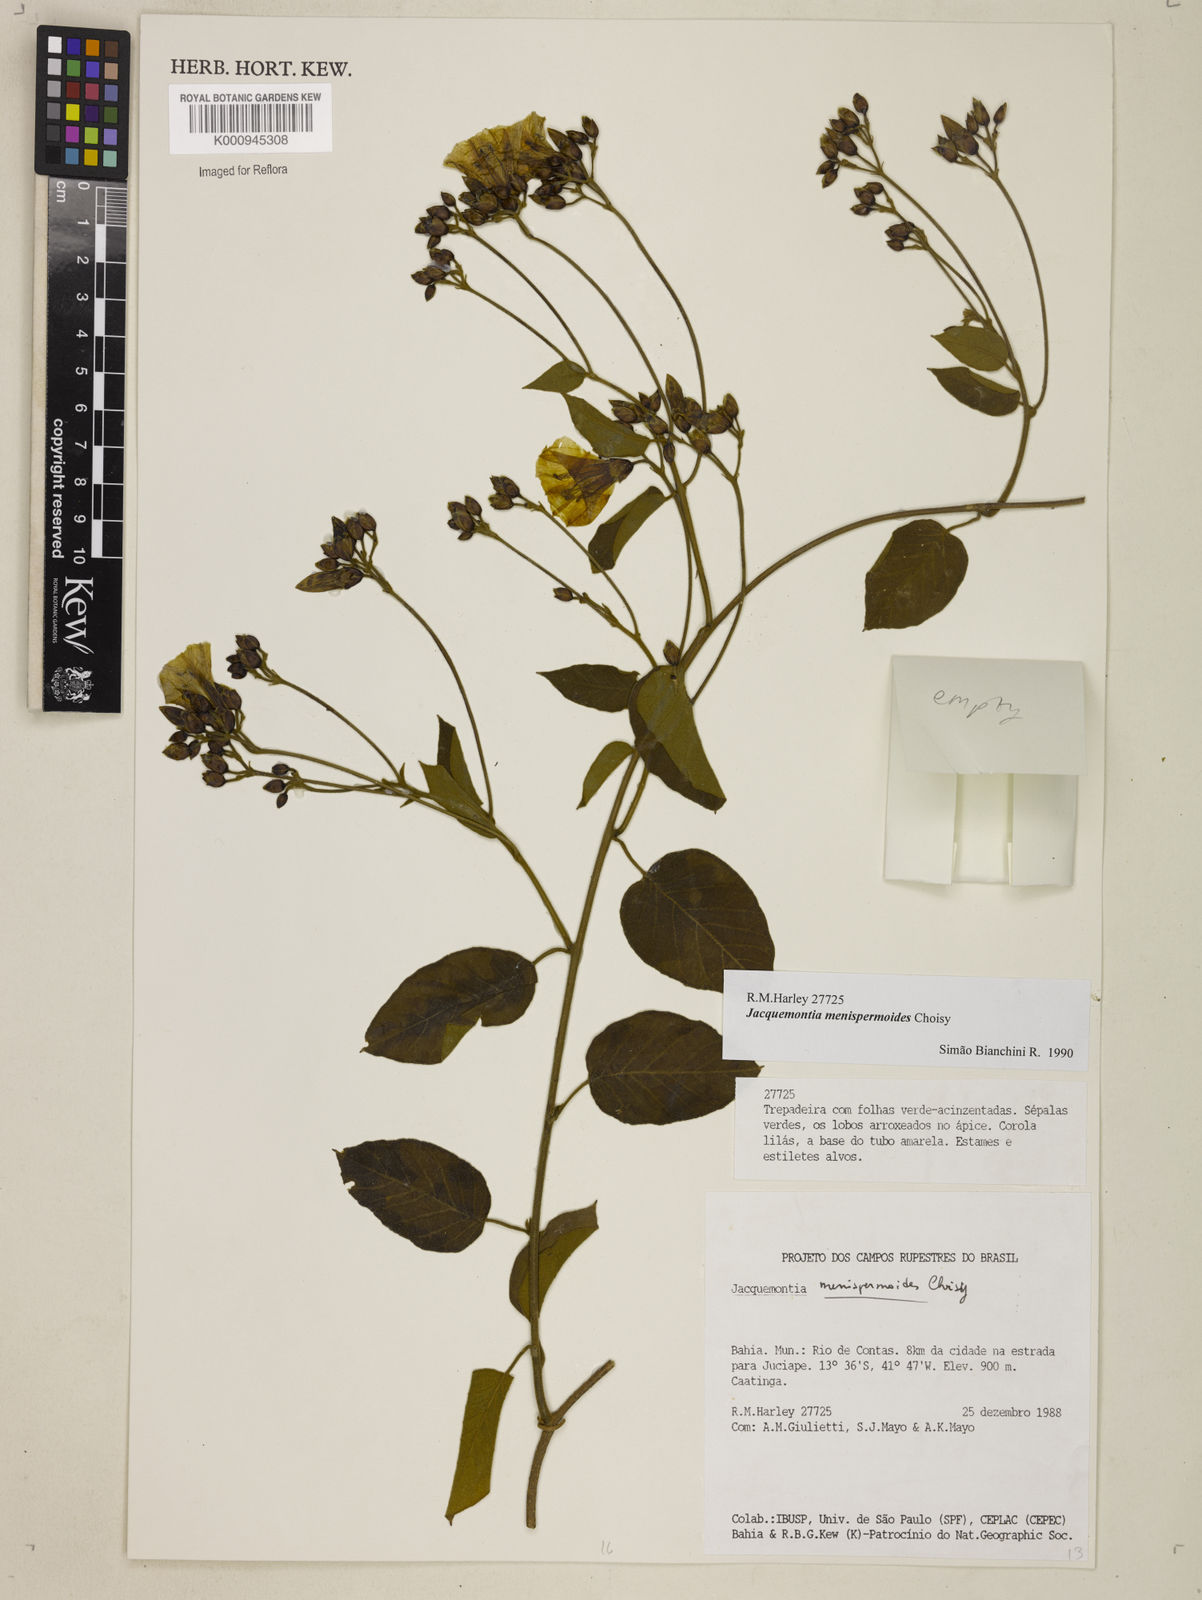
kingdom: Plantae
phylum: Tracheophyta
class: Magnoliopsida
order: Solanales
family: Convolvulaceae
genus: Jacquemontia
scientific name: Jacquemontia holosericea
